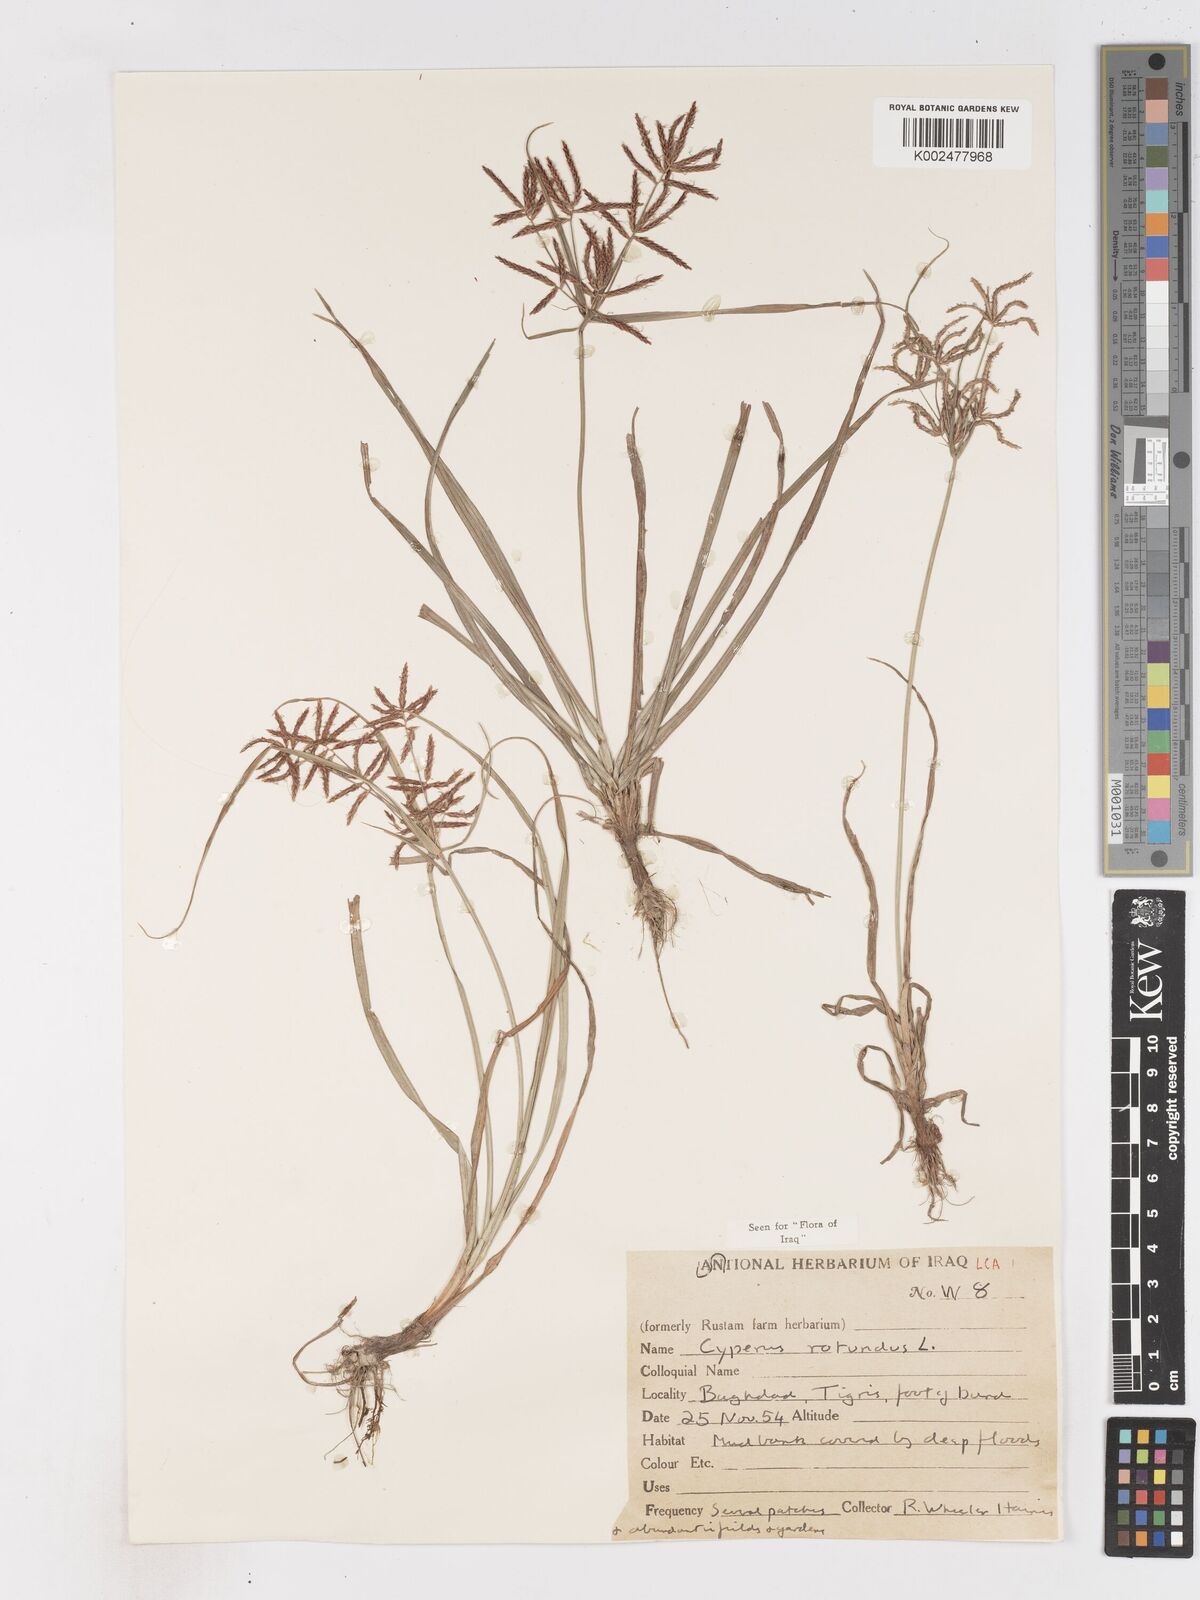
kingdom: Plantae
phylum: Tracheophyta
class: Liliopsida
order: Poales
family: Cyperaceae
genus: Cyperus
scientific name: Cyperus rotundus
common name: Nutgrass
